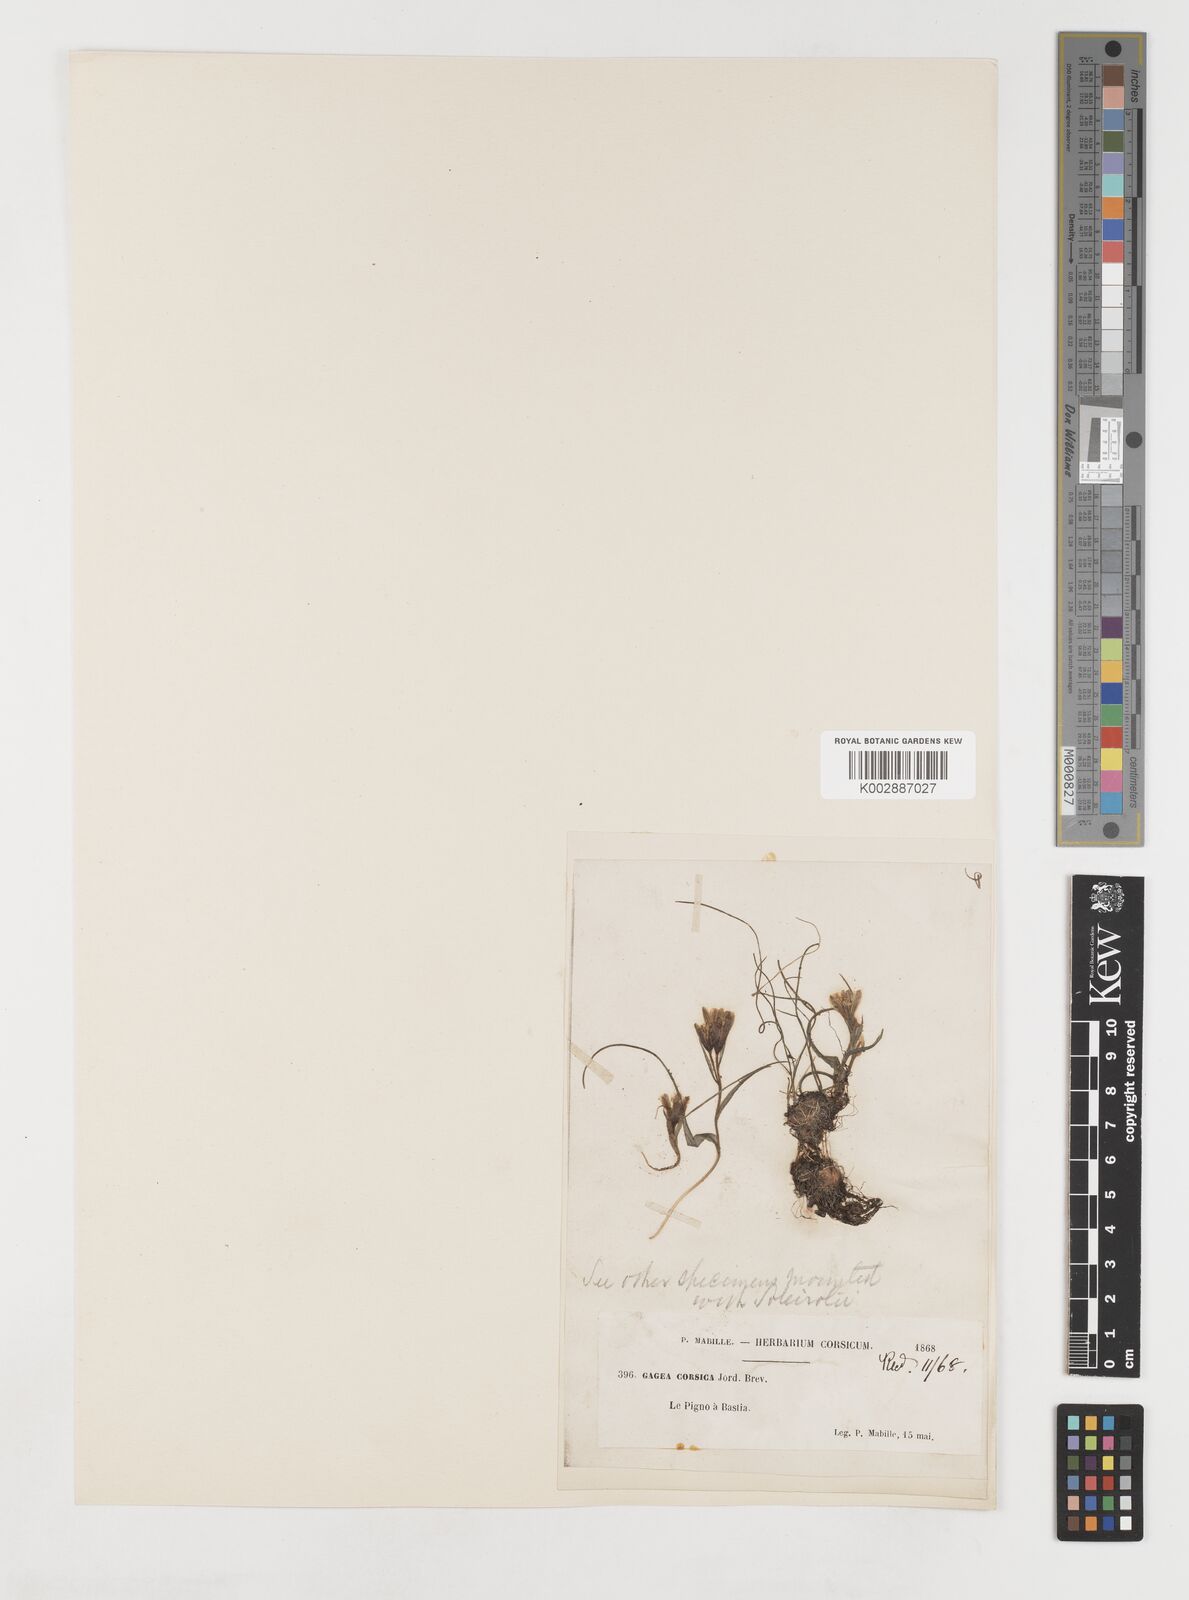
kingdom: Plantae
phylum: Tracheophyta
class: Liliopsida
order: Liliales
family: Liliaceae
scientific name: Liliaceae
